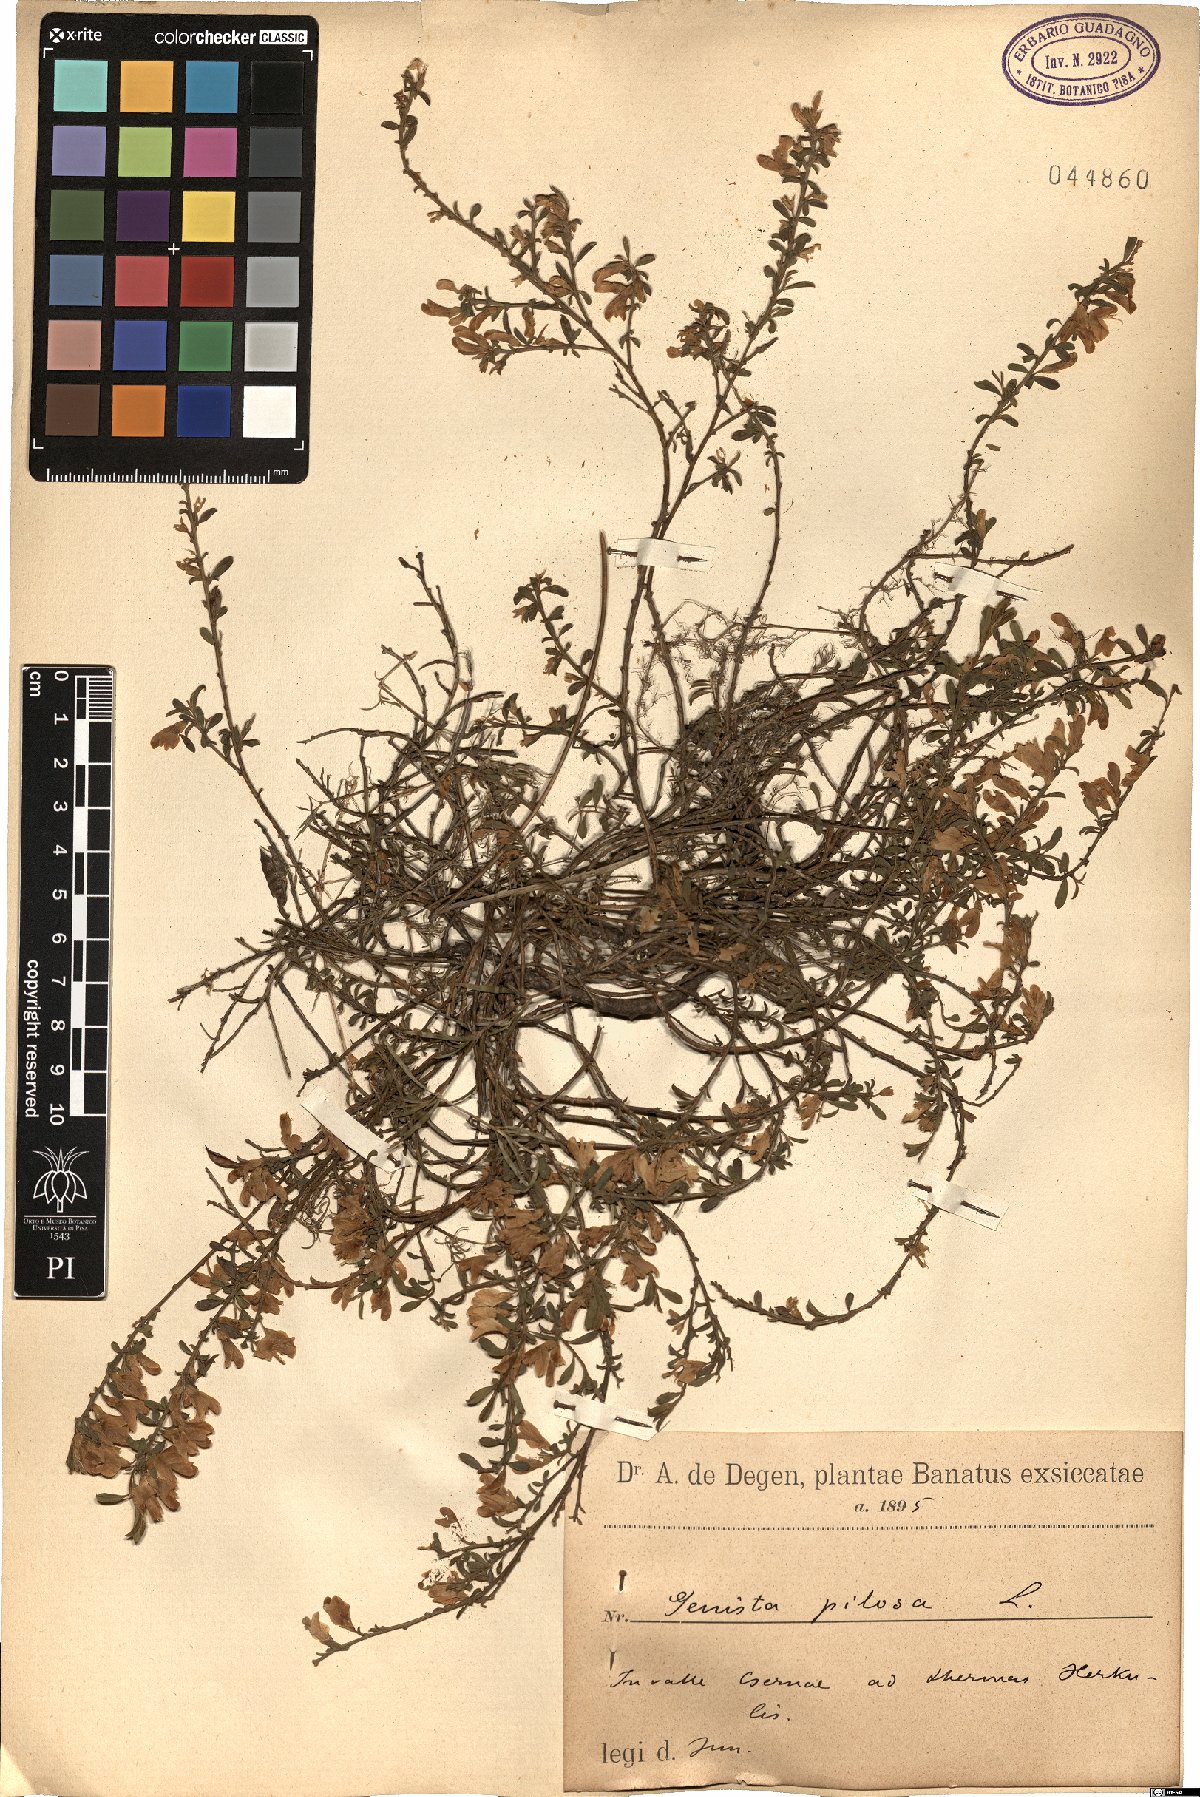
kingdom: Plantae
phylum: Tracheophyta
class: Magnoliopsida
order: Fabales
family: Fabaceae
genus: Genista
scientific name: Genista pilosa
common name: Hairy greenweed
